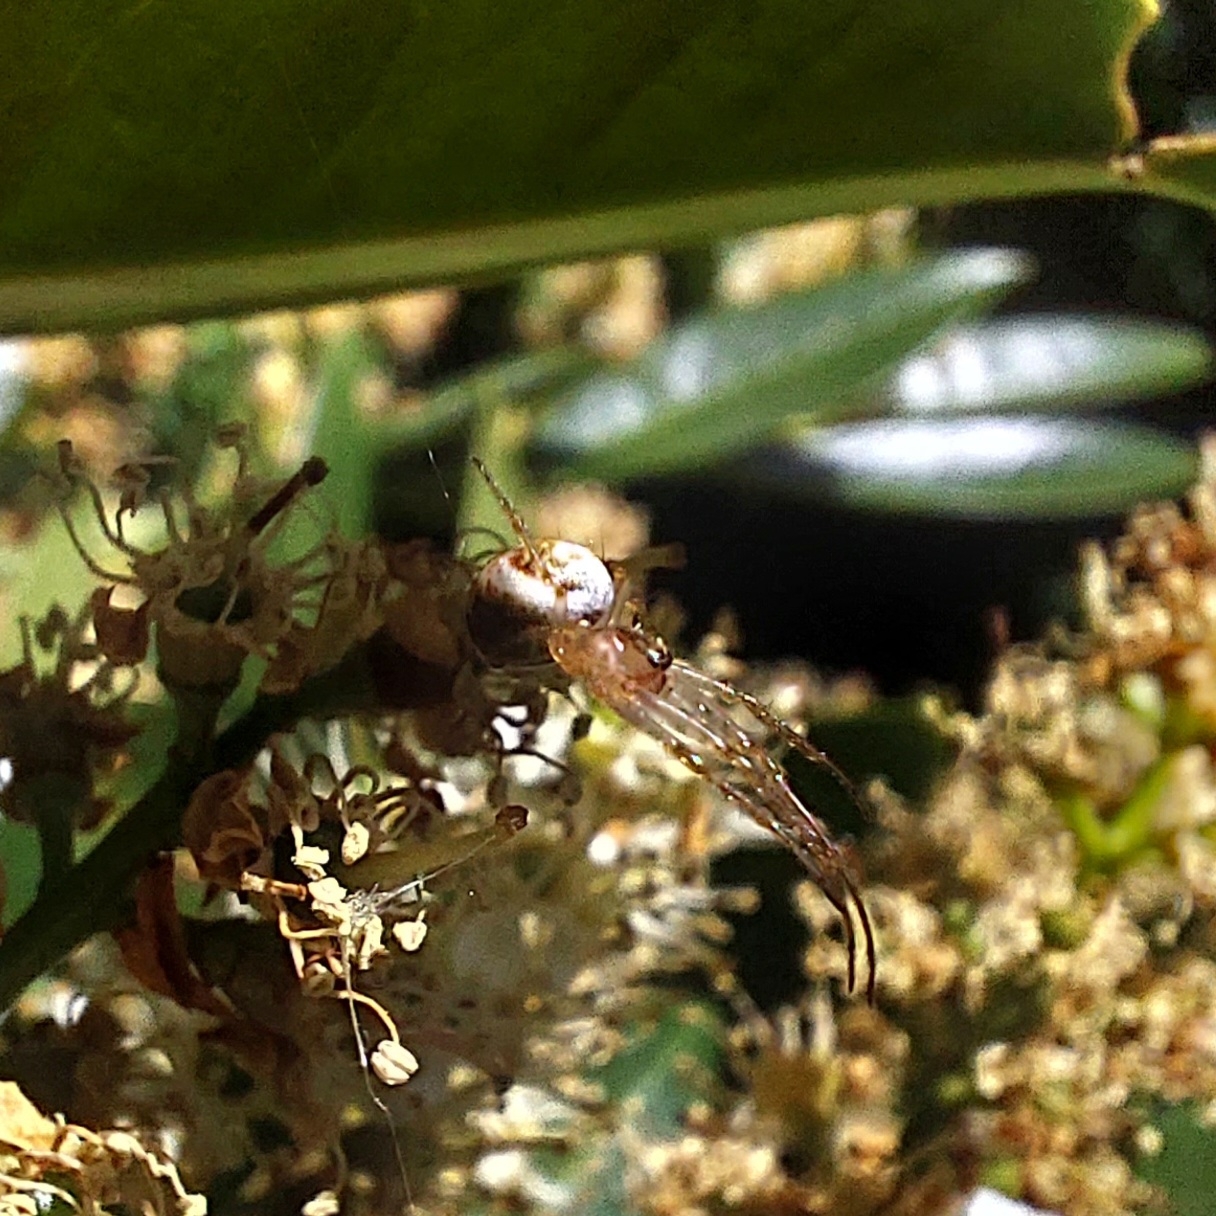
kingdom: Animalia
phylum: Arthropoda
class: Arachnida
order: Araneae
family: Tetragnathidae
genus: Metellina
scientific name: Metellina
